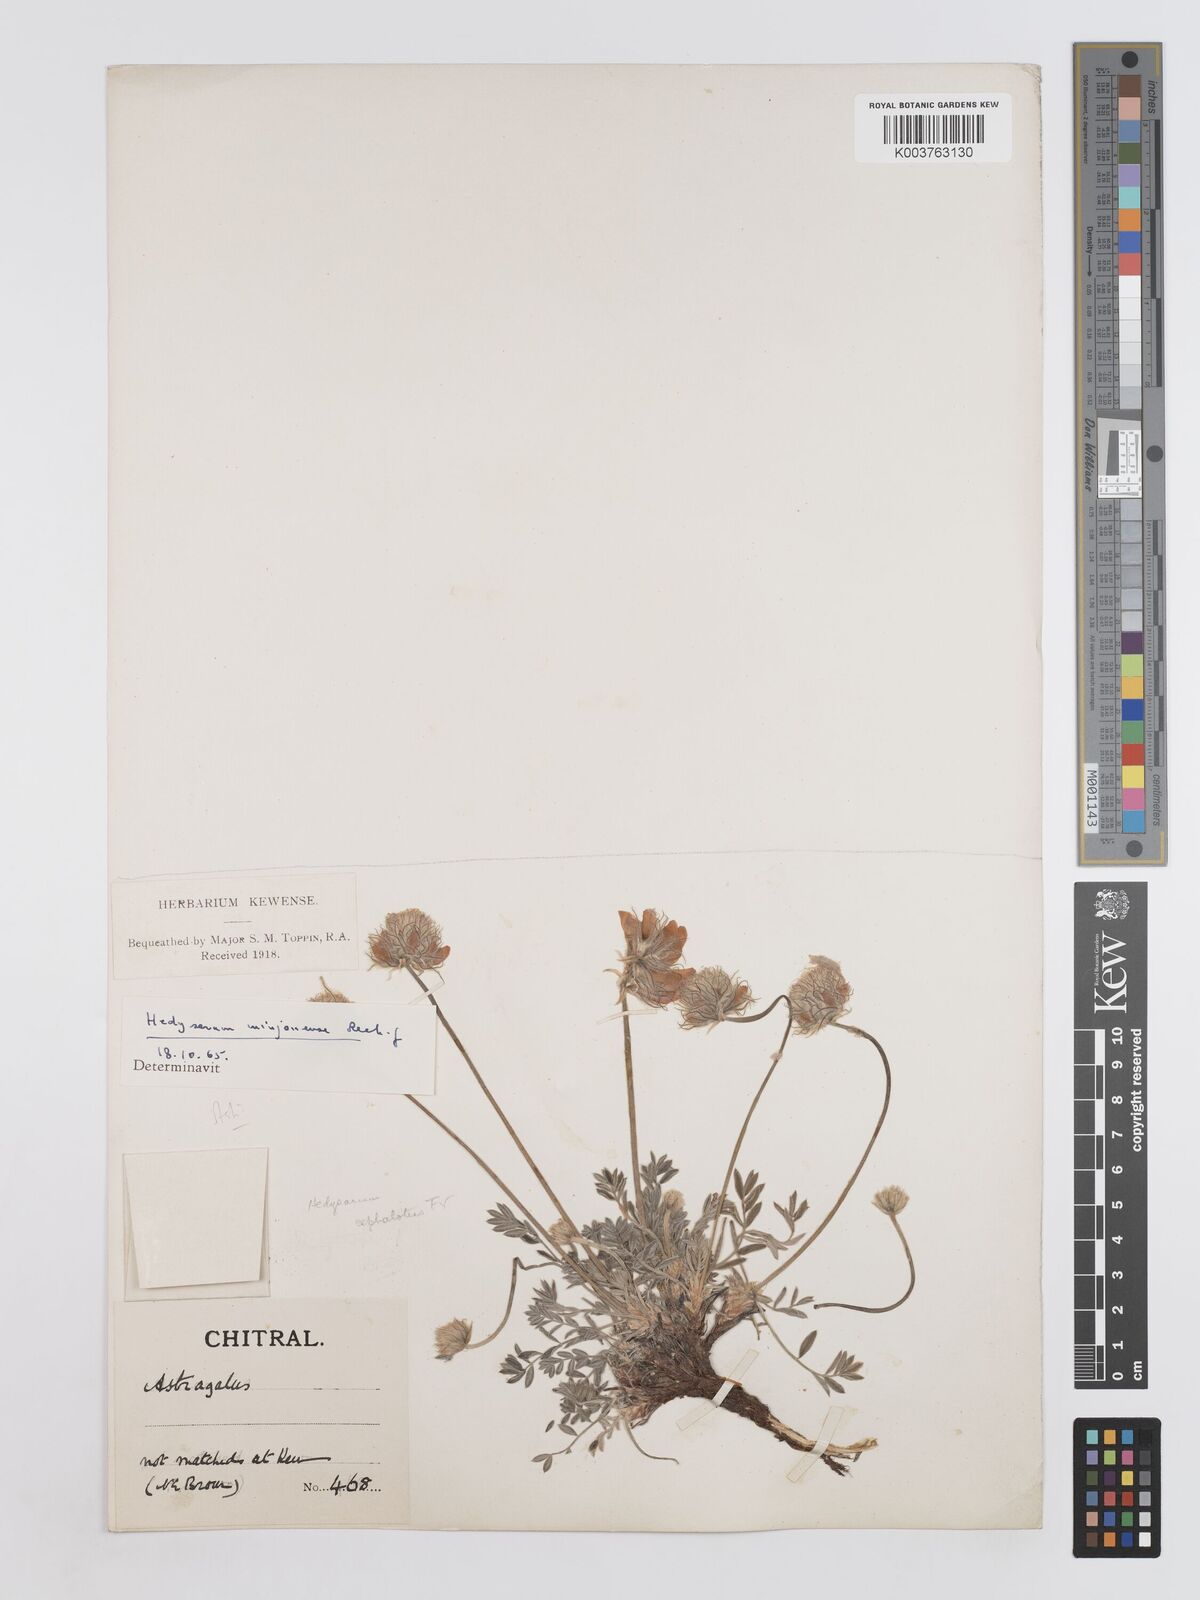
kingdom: Plantae
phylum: Tracheophyta
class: Magnoliopsida
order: Fabales
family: Fabaceae
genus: Hedysarum
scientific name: Hedysarum minjanense
